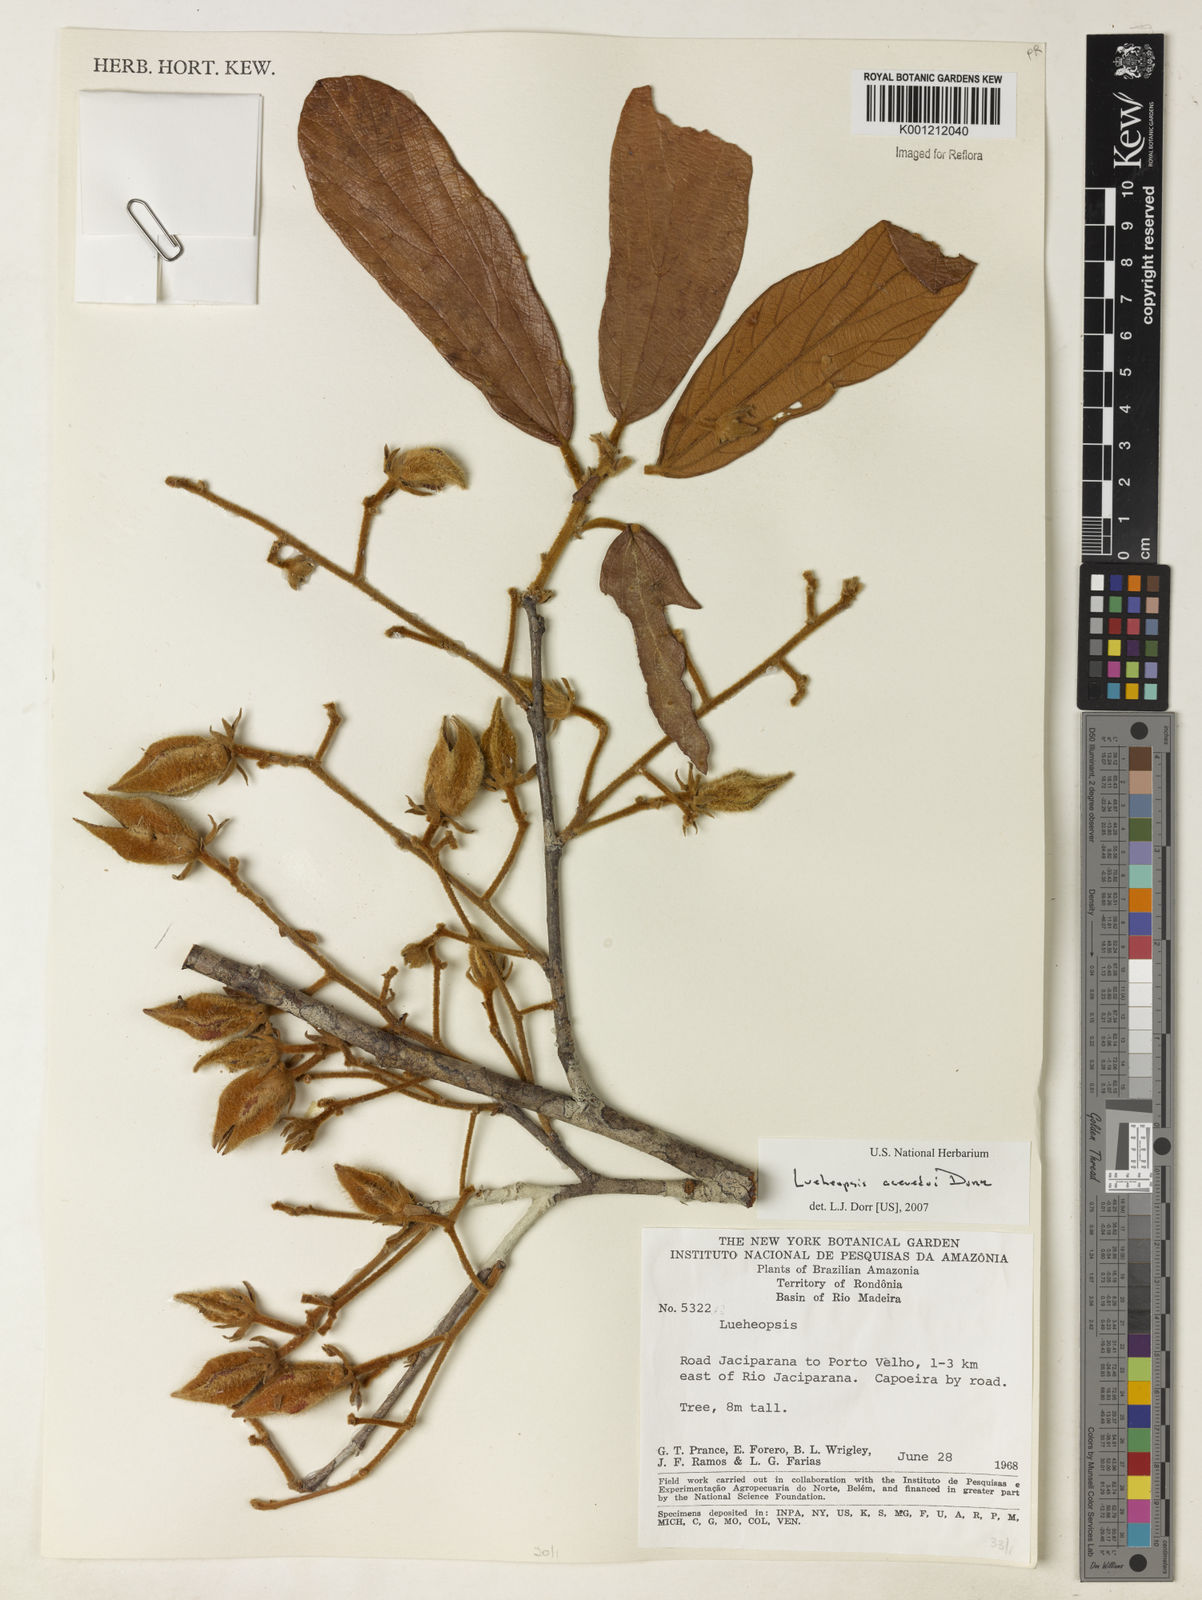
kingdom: Plantae
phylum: Tracheophyta
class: Magnoliopsida
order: Malvales
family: Malvaceae
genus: Lueheopsis
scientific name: Lueheopsis
